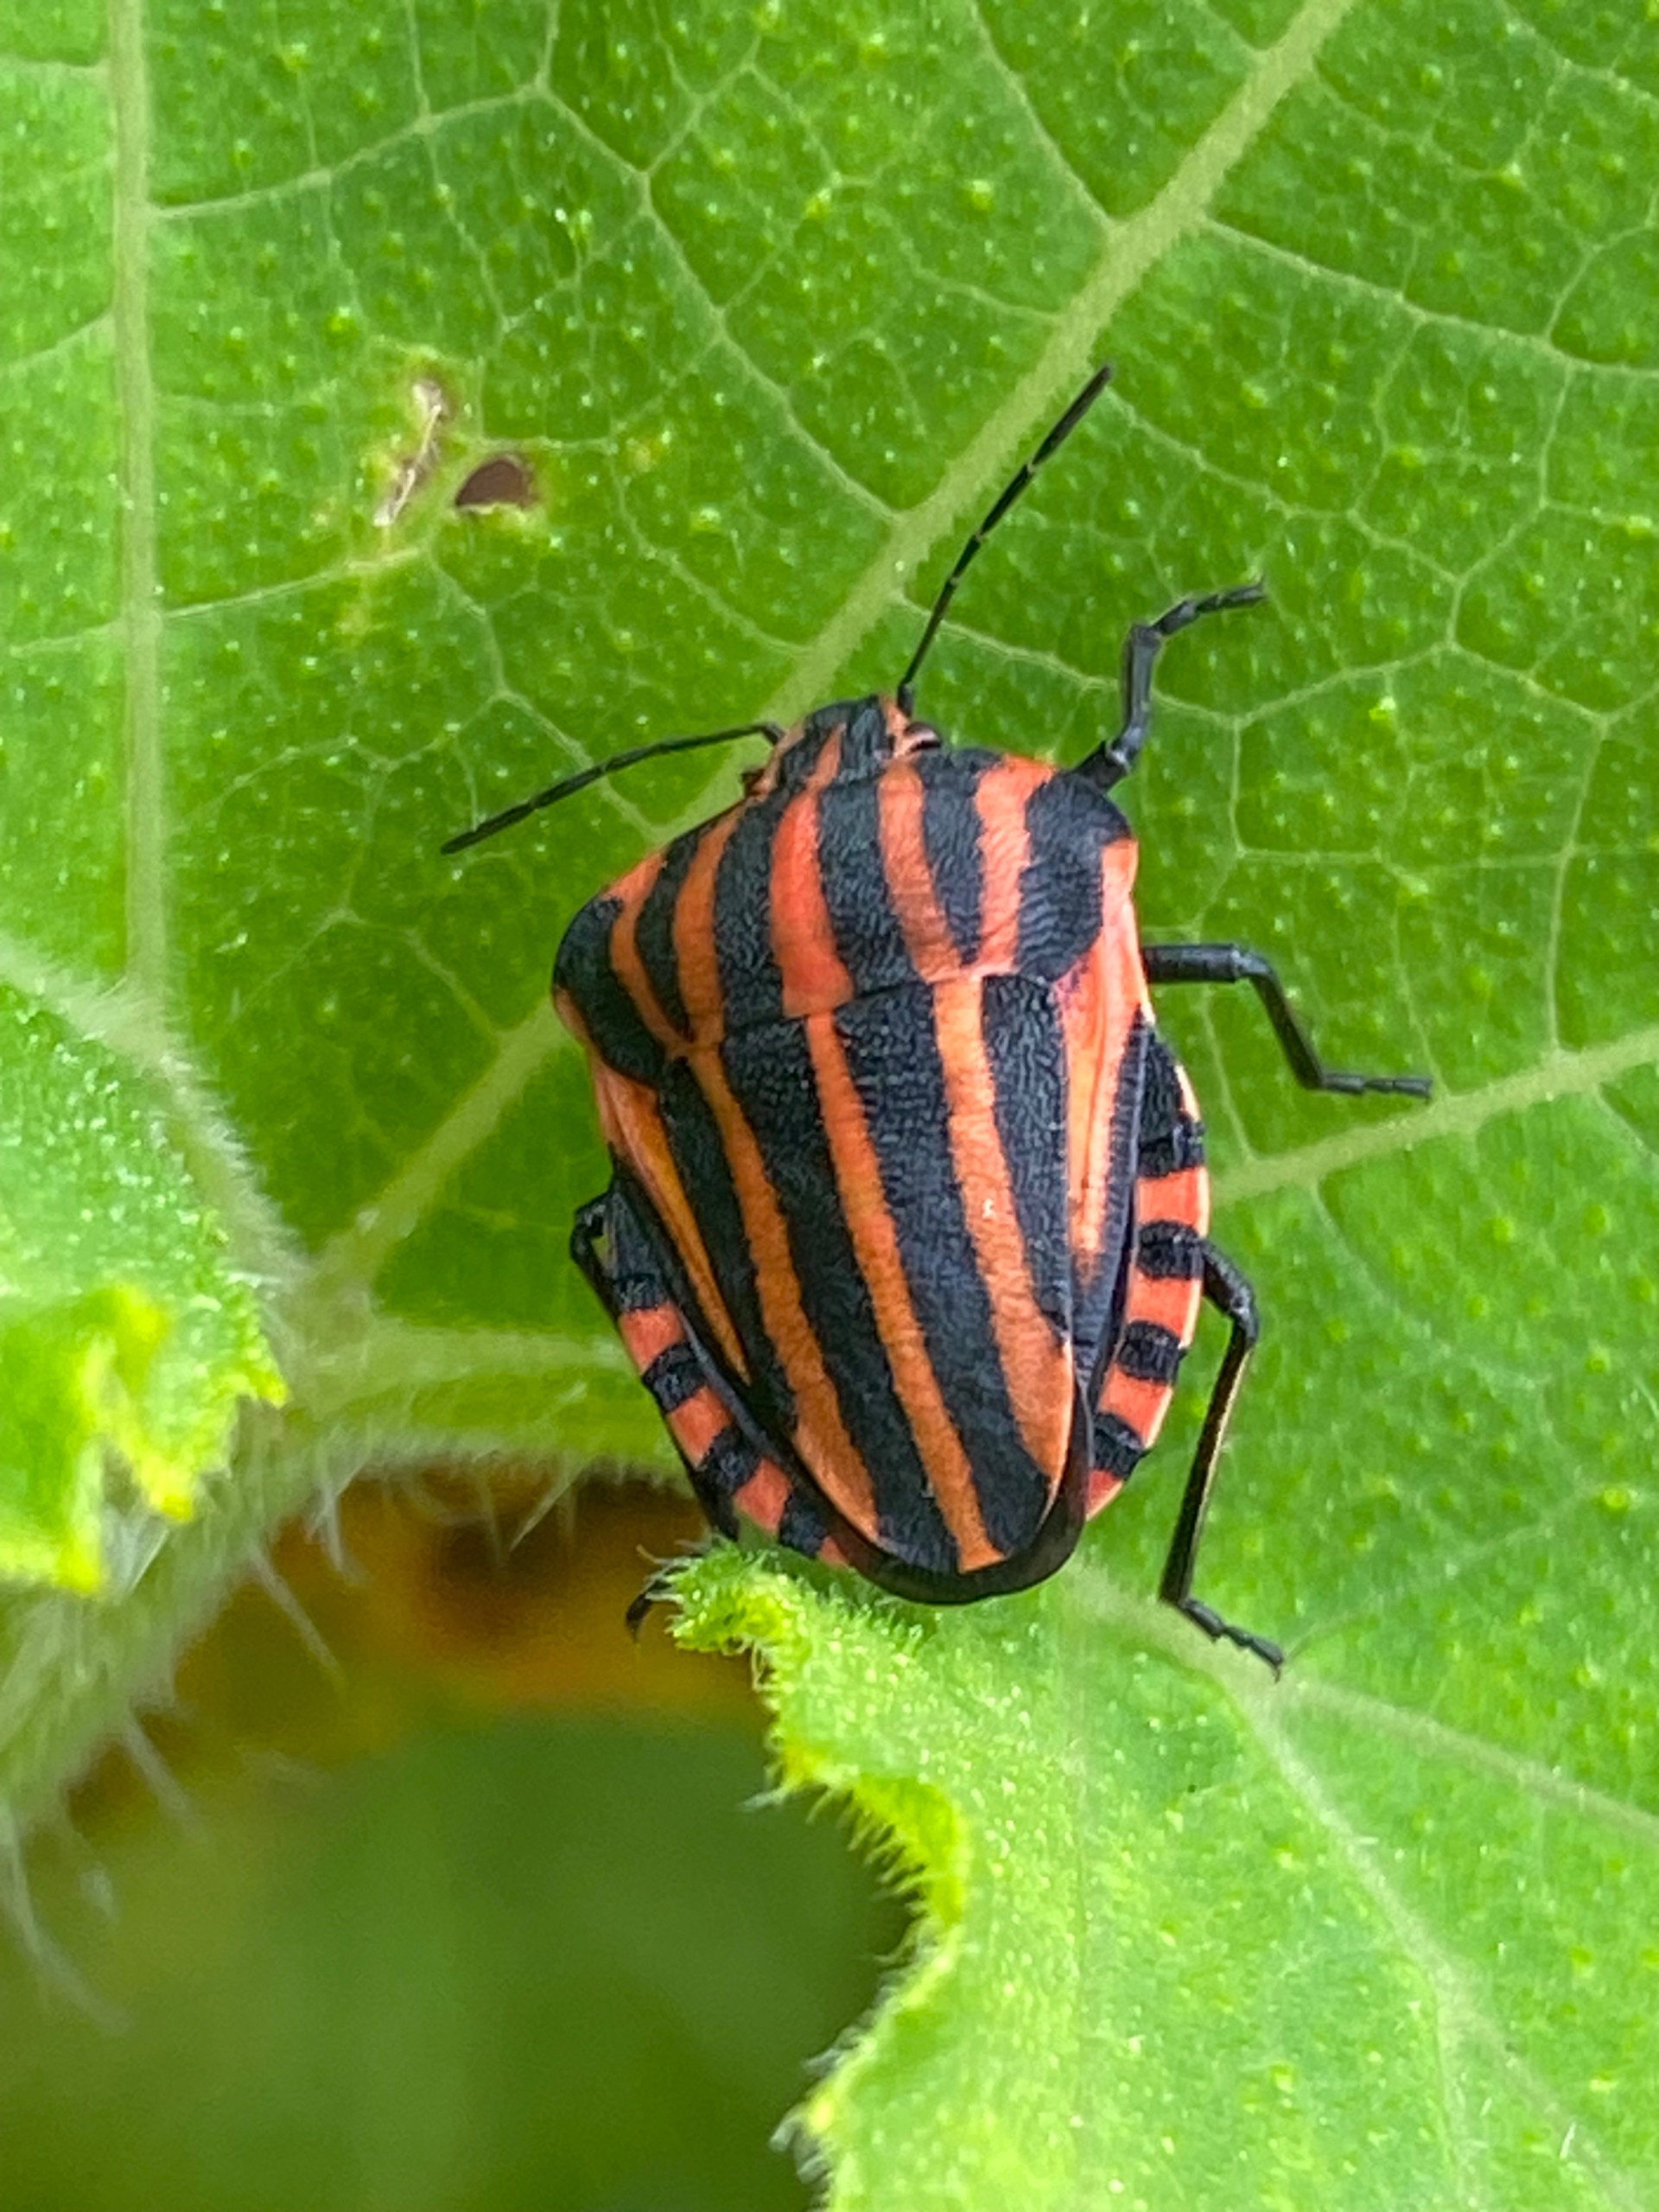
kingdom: Animalia
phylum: Arthropoda
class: Insecta
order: Hemiptera
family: Pentatomidae
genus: Graphosoma
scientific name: Graphosoma italicum
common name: Stribetæge
